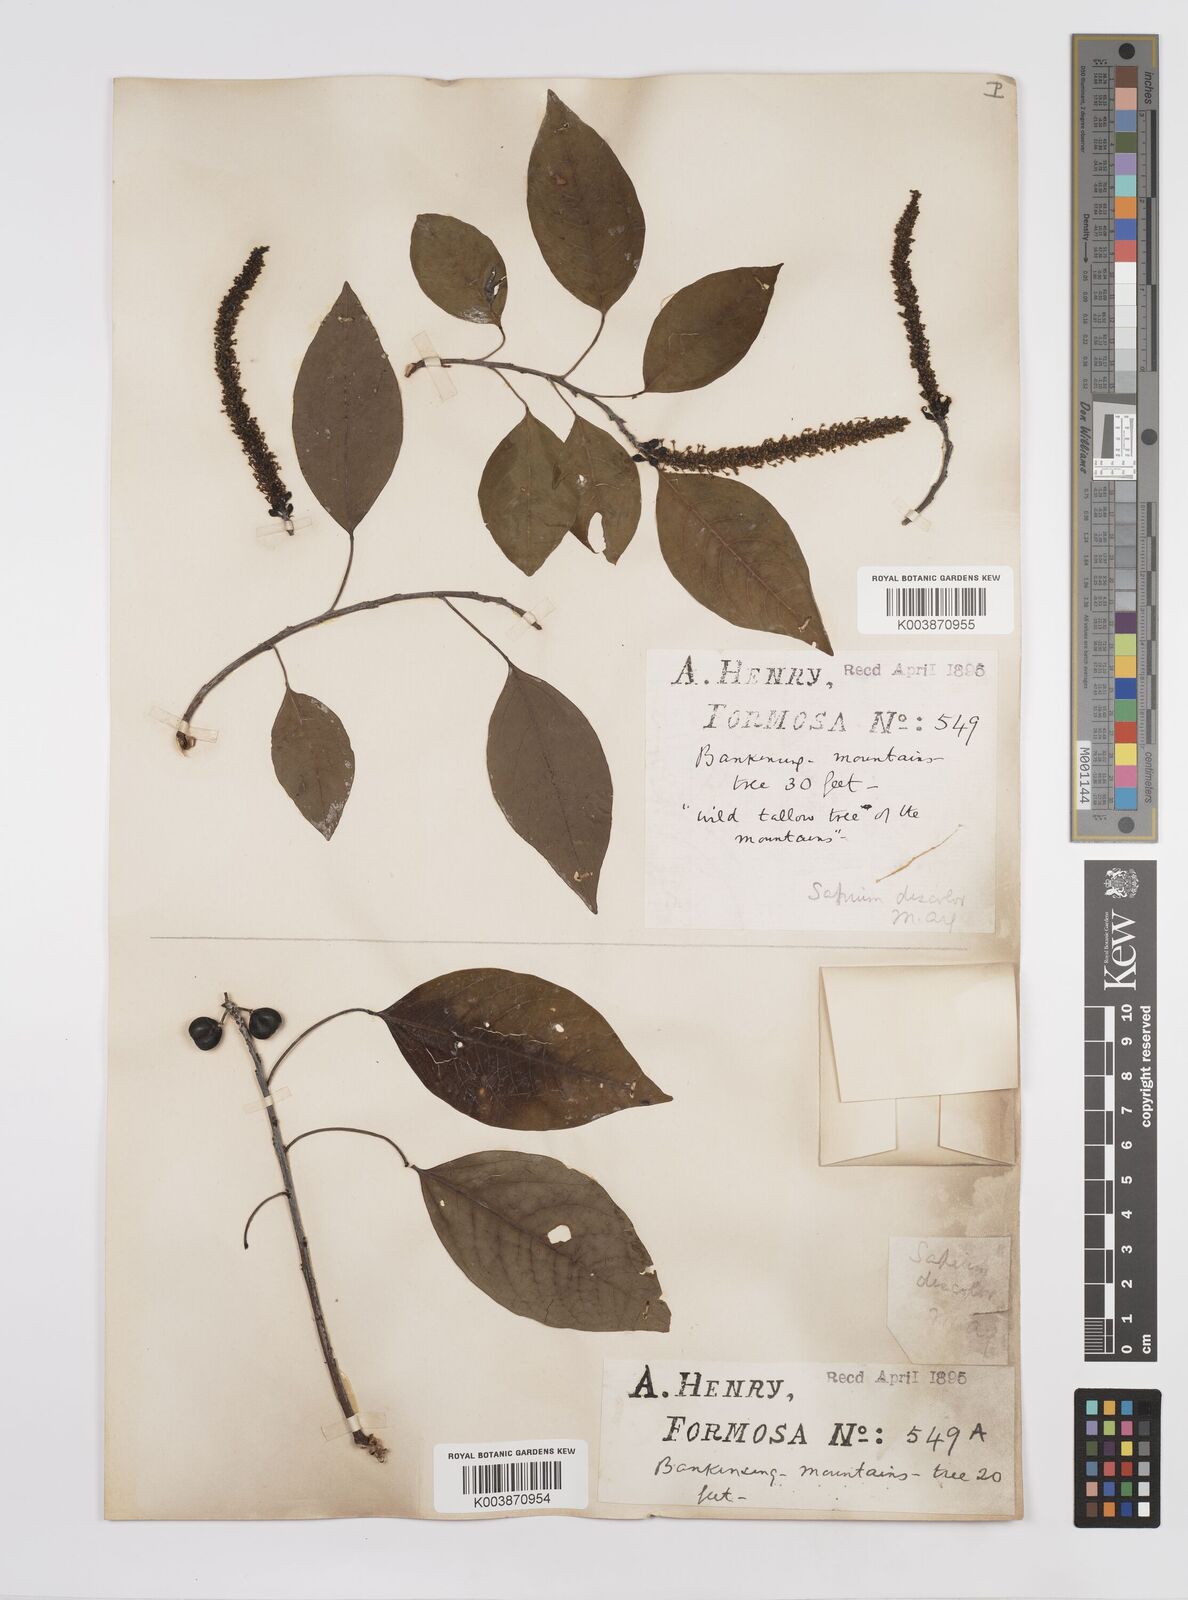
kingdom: Plantae
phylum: Tracheophyta
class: Magnoliopsida
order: Malpighiales
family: Euphorbiaceae
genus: Triadica
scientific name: Triadica cochinchinensis
